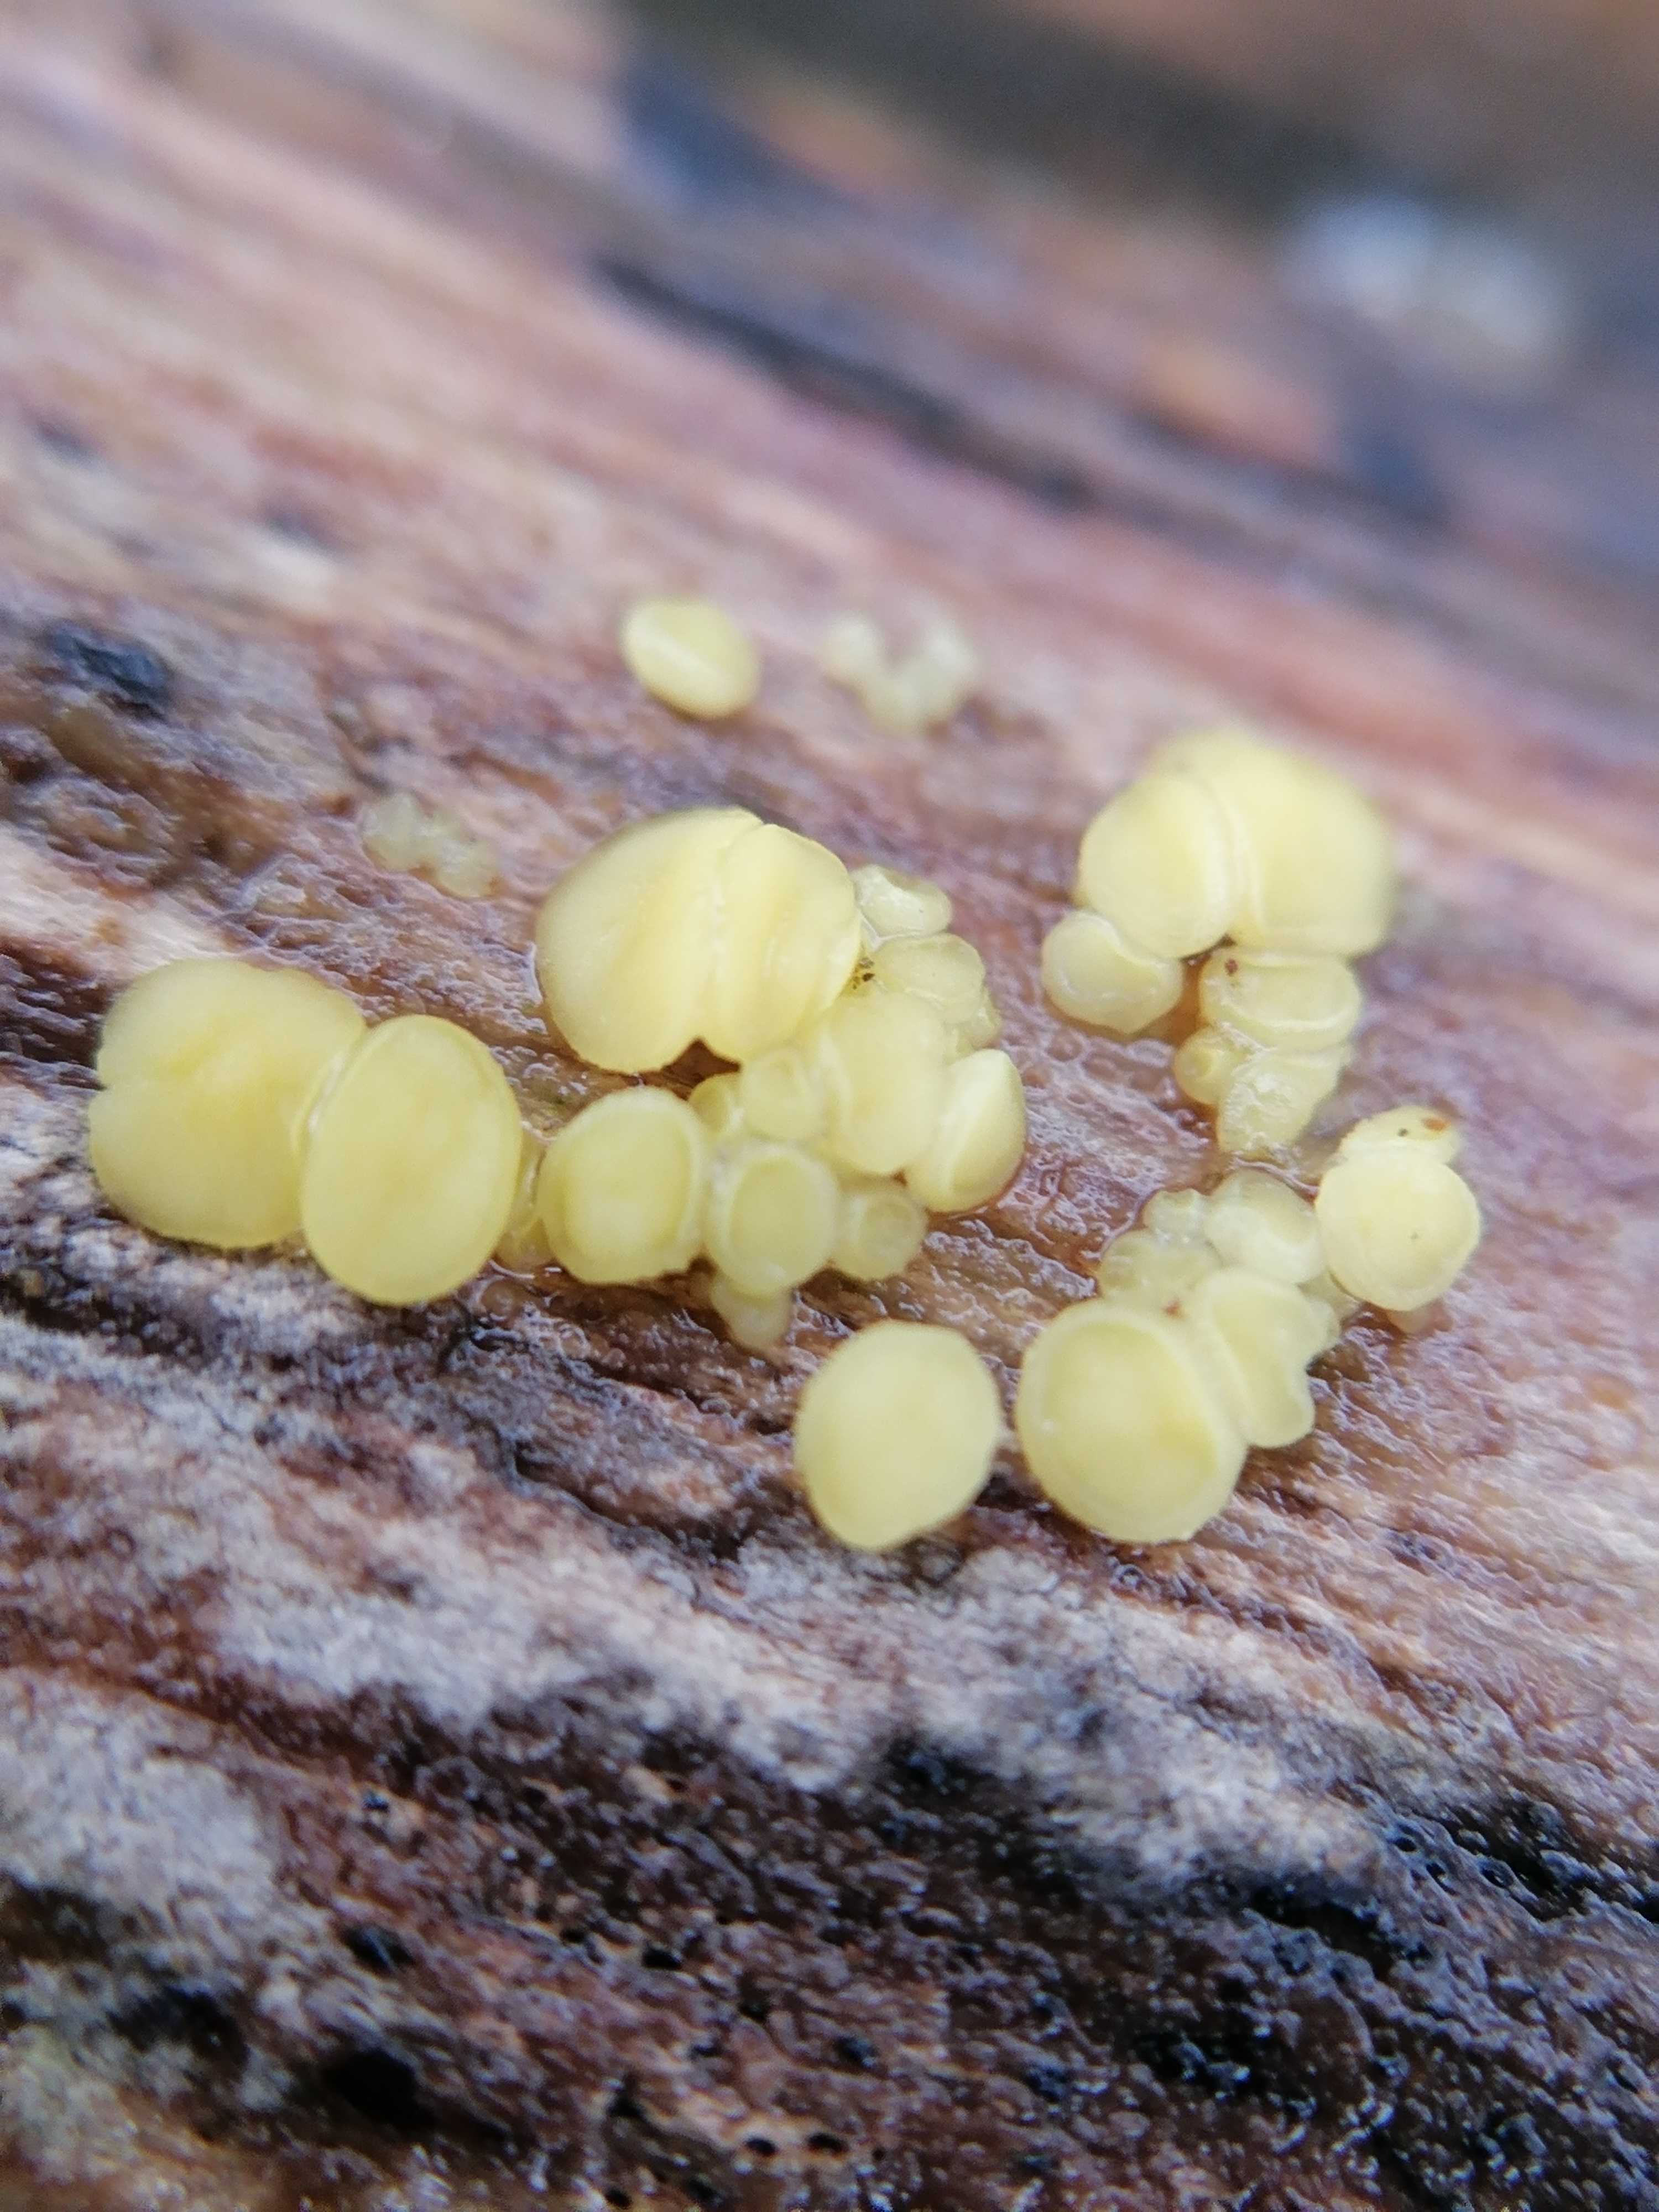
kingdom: Fungi
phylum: Ascomycota
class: Leotiomycetes
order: Helotiales
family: Helotiaceae
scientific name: Helotiaceae
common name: stilkskivefamilien
